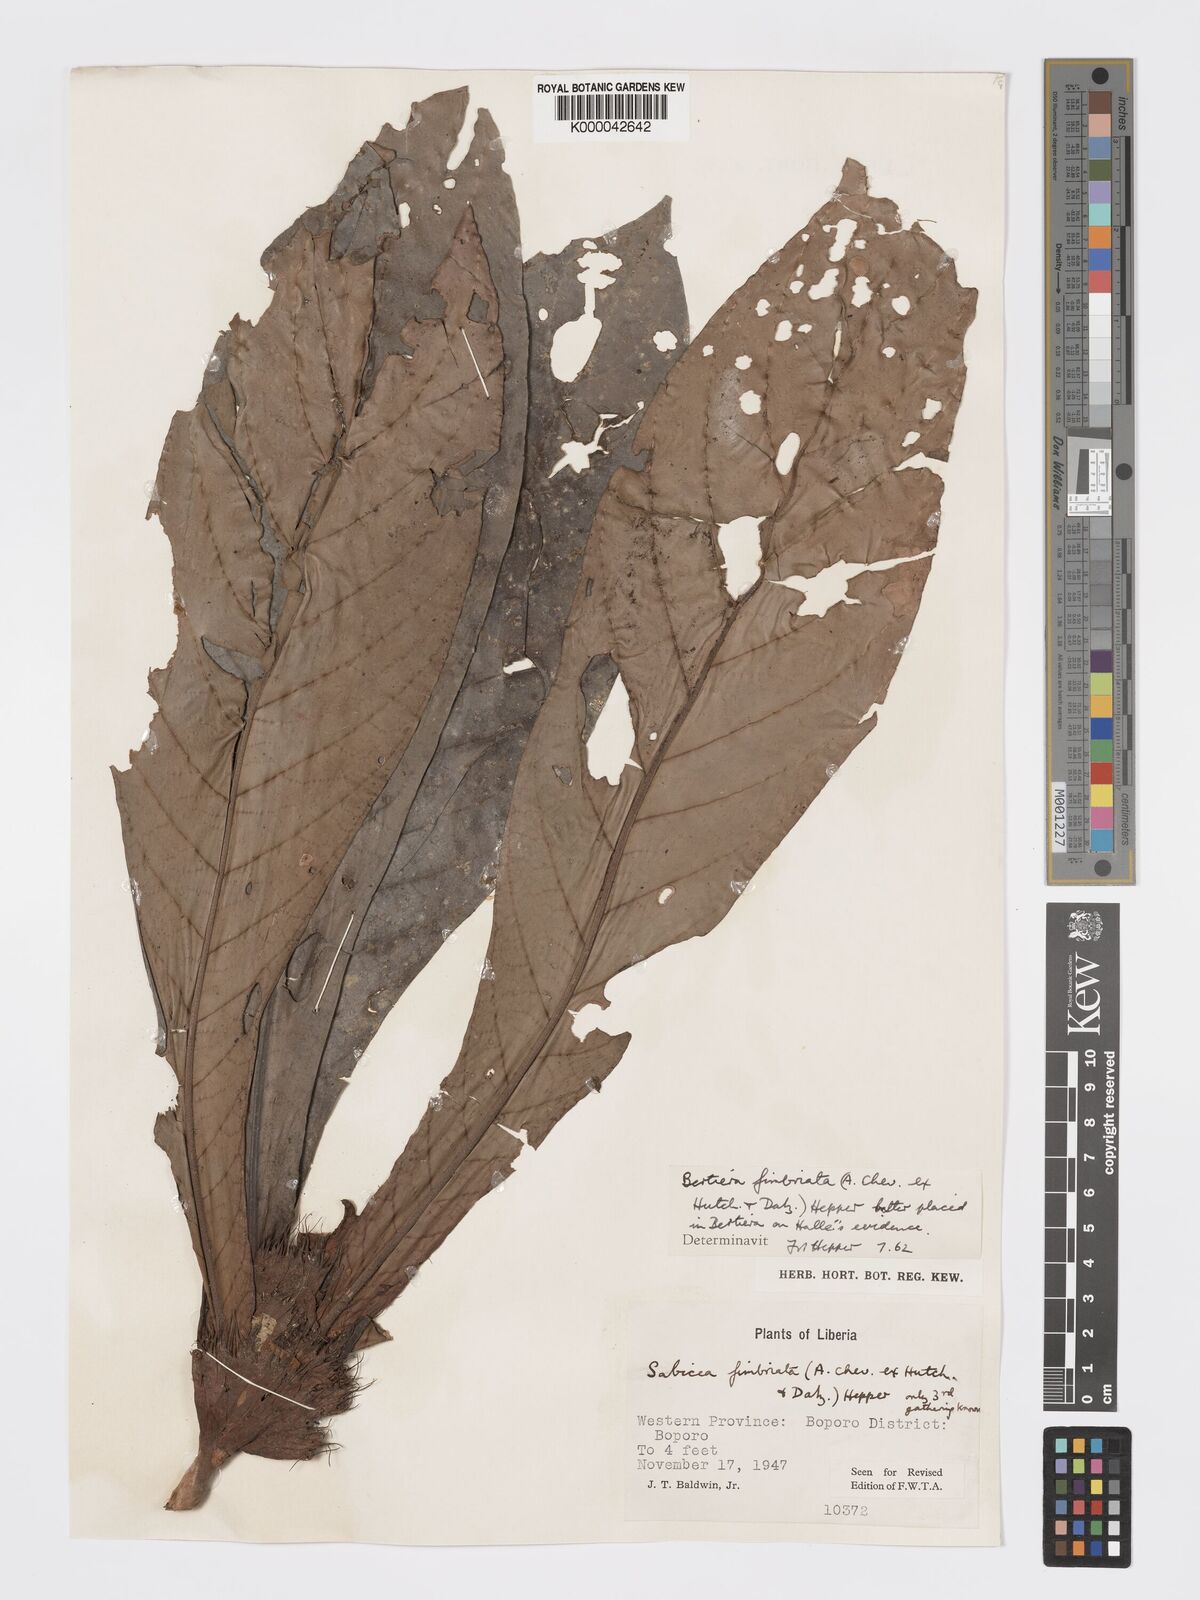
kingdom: Plantae
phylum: Tracheophyta
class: Magnoliopsida
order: Gentianales
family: Rubiaceae
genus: Bertiera
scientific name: Bertiera fimbriata
